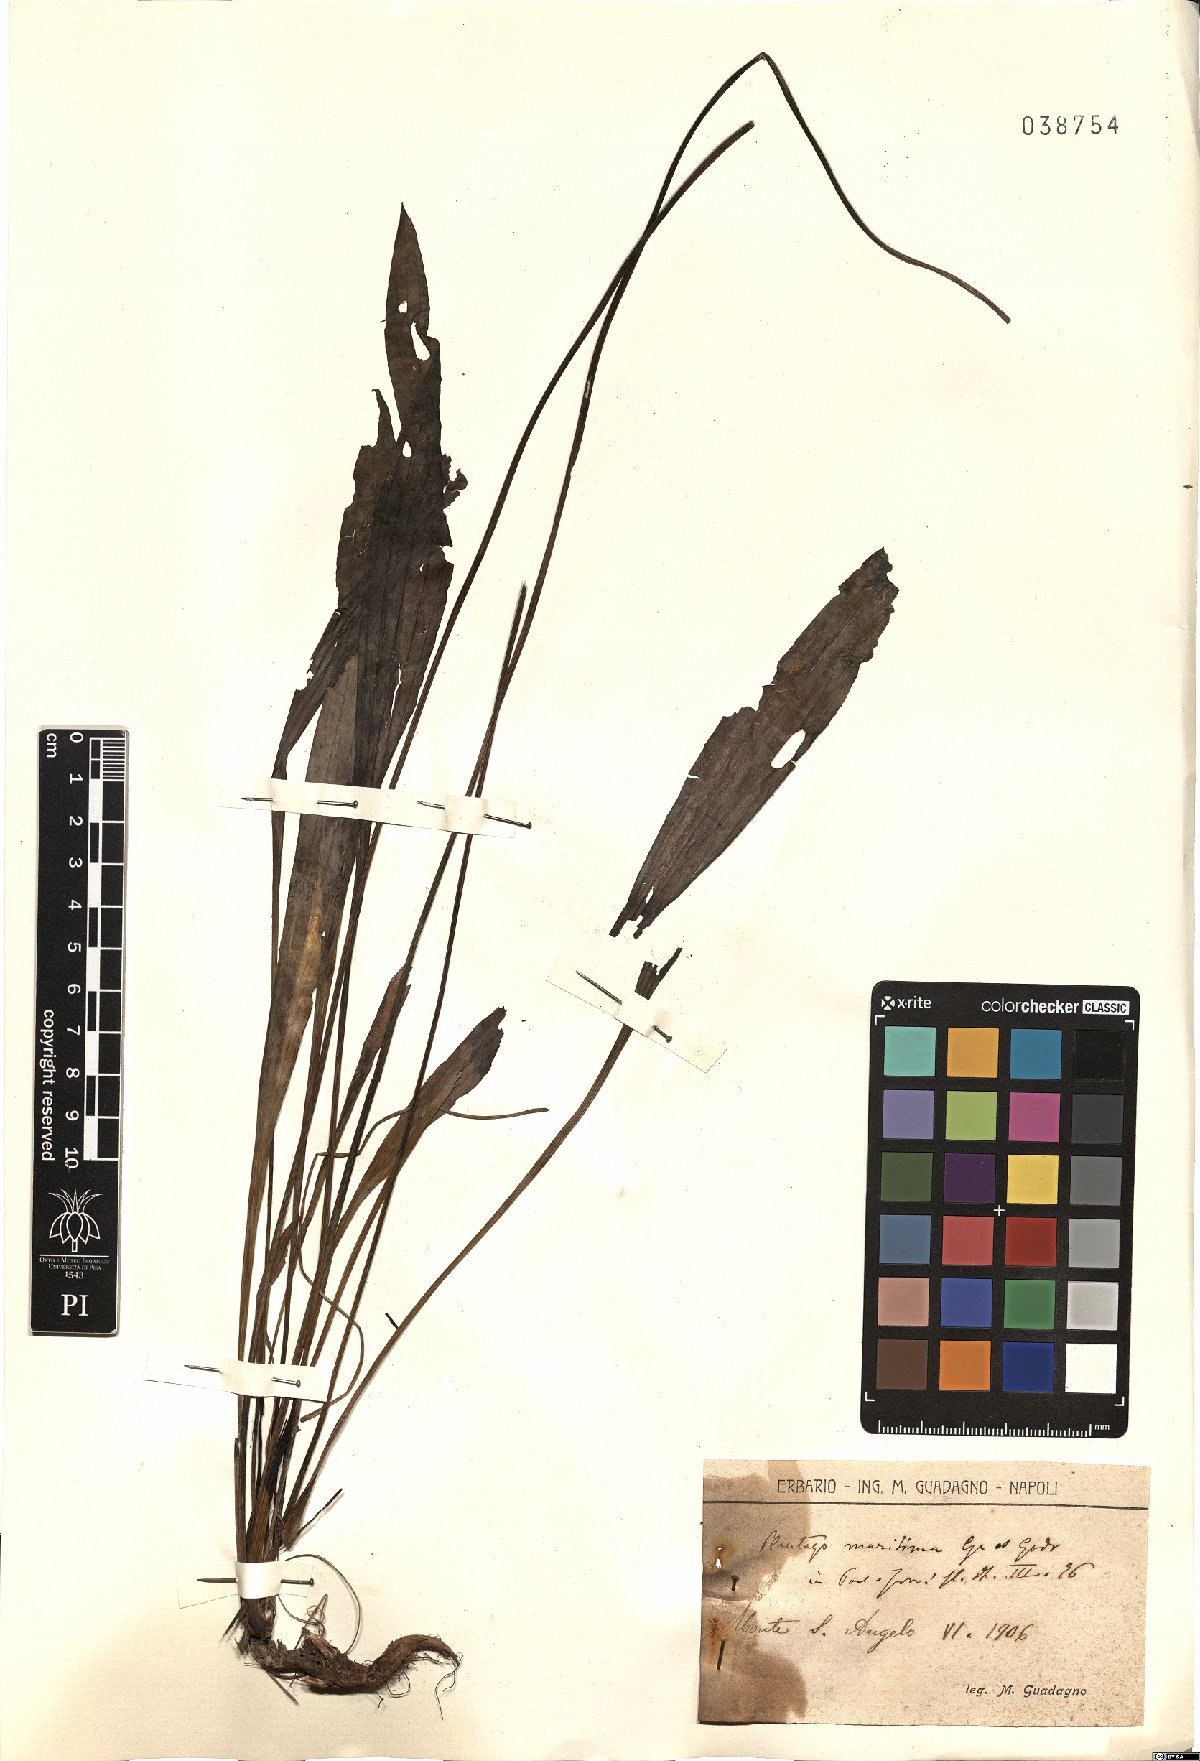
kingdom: Plantae
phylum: Tracheophyta
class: Magnoliopsida
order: Lamiales
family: Plantaginaceae
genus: Plantago
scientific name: Plantago maritima
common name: Sea plantain
